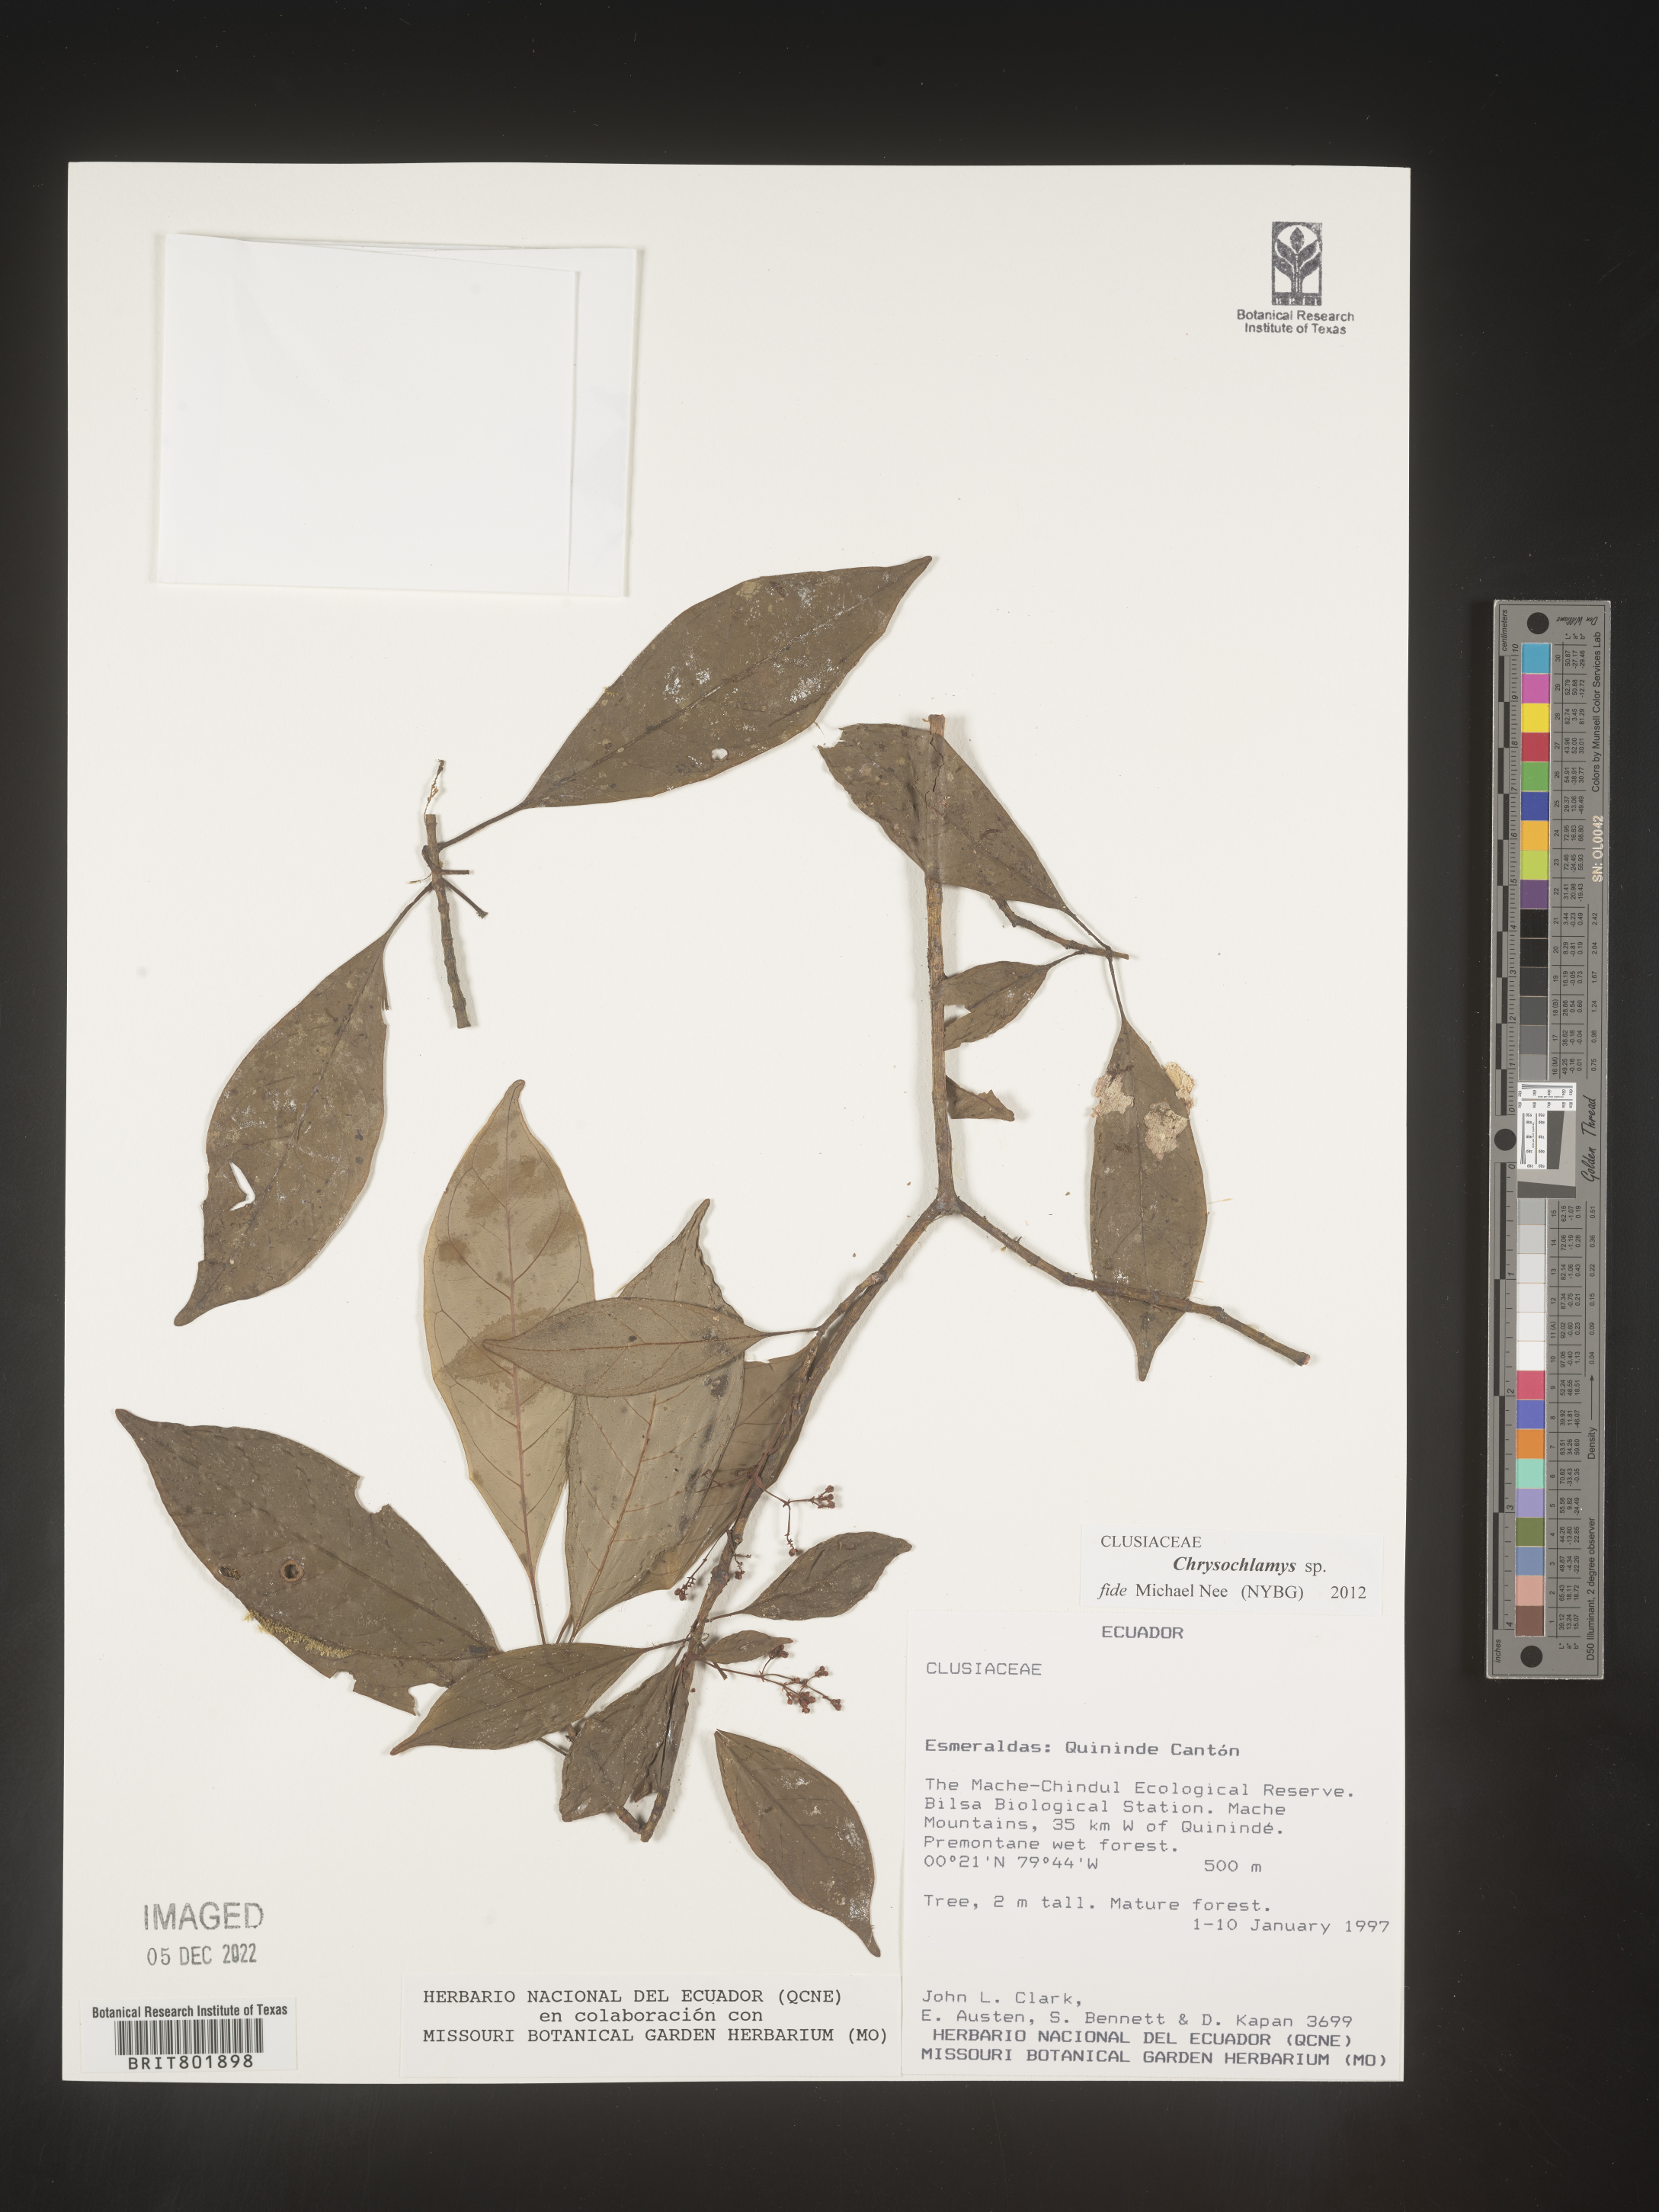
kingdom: Plantae
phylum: Tracheophyta
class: Magnoliopsida
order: Malpighiales
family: Clusiaceae
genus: Chrysochlamys
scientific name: Chrysochlamys
